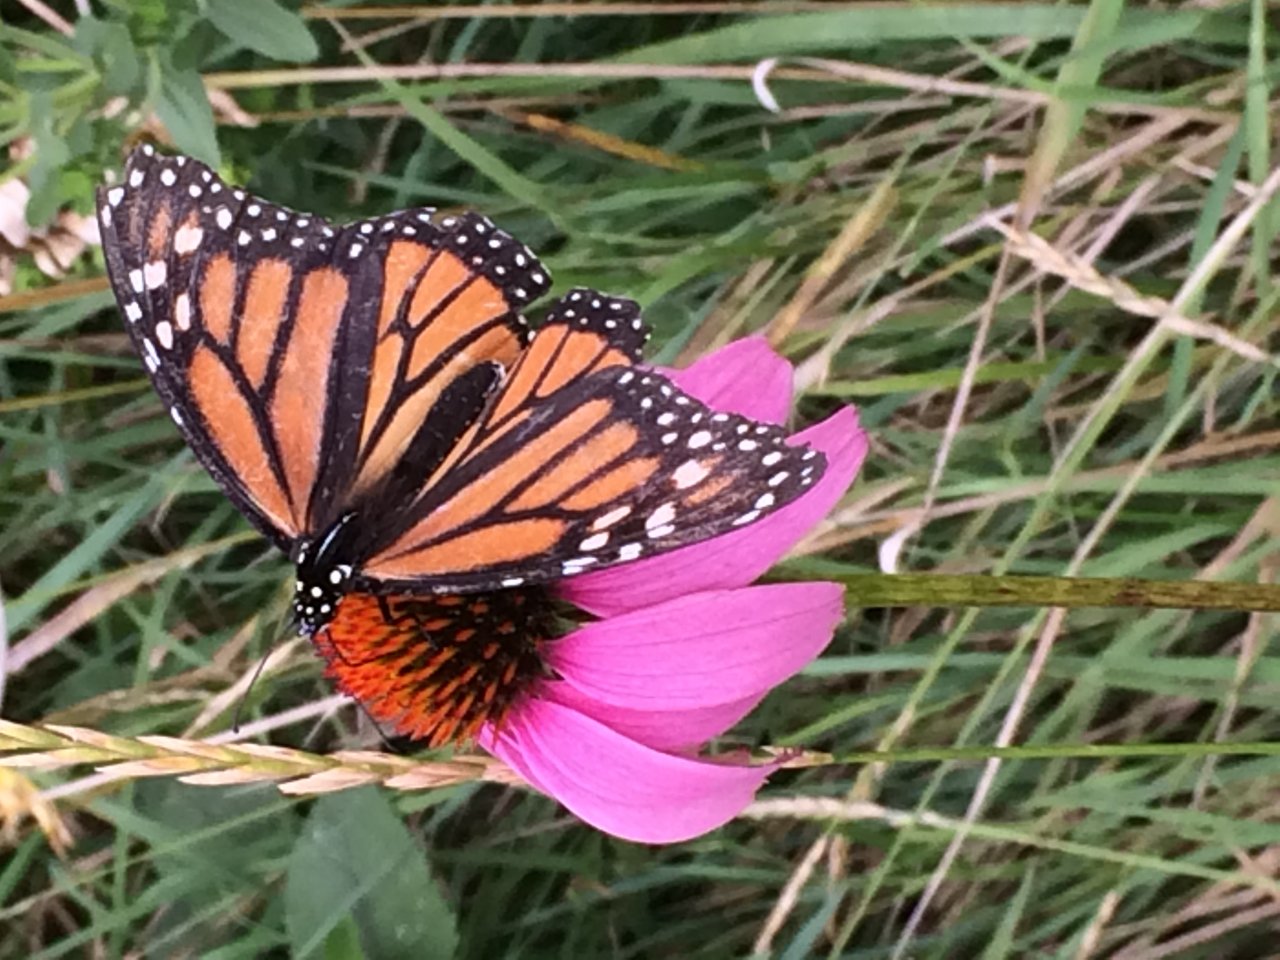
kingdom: Animalia
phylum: Arthropoda
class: Insecta
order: Lepidoptera
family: Nymphalidae
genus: Danaus
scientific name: Danaus plexippus
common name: Monarch
